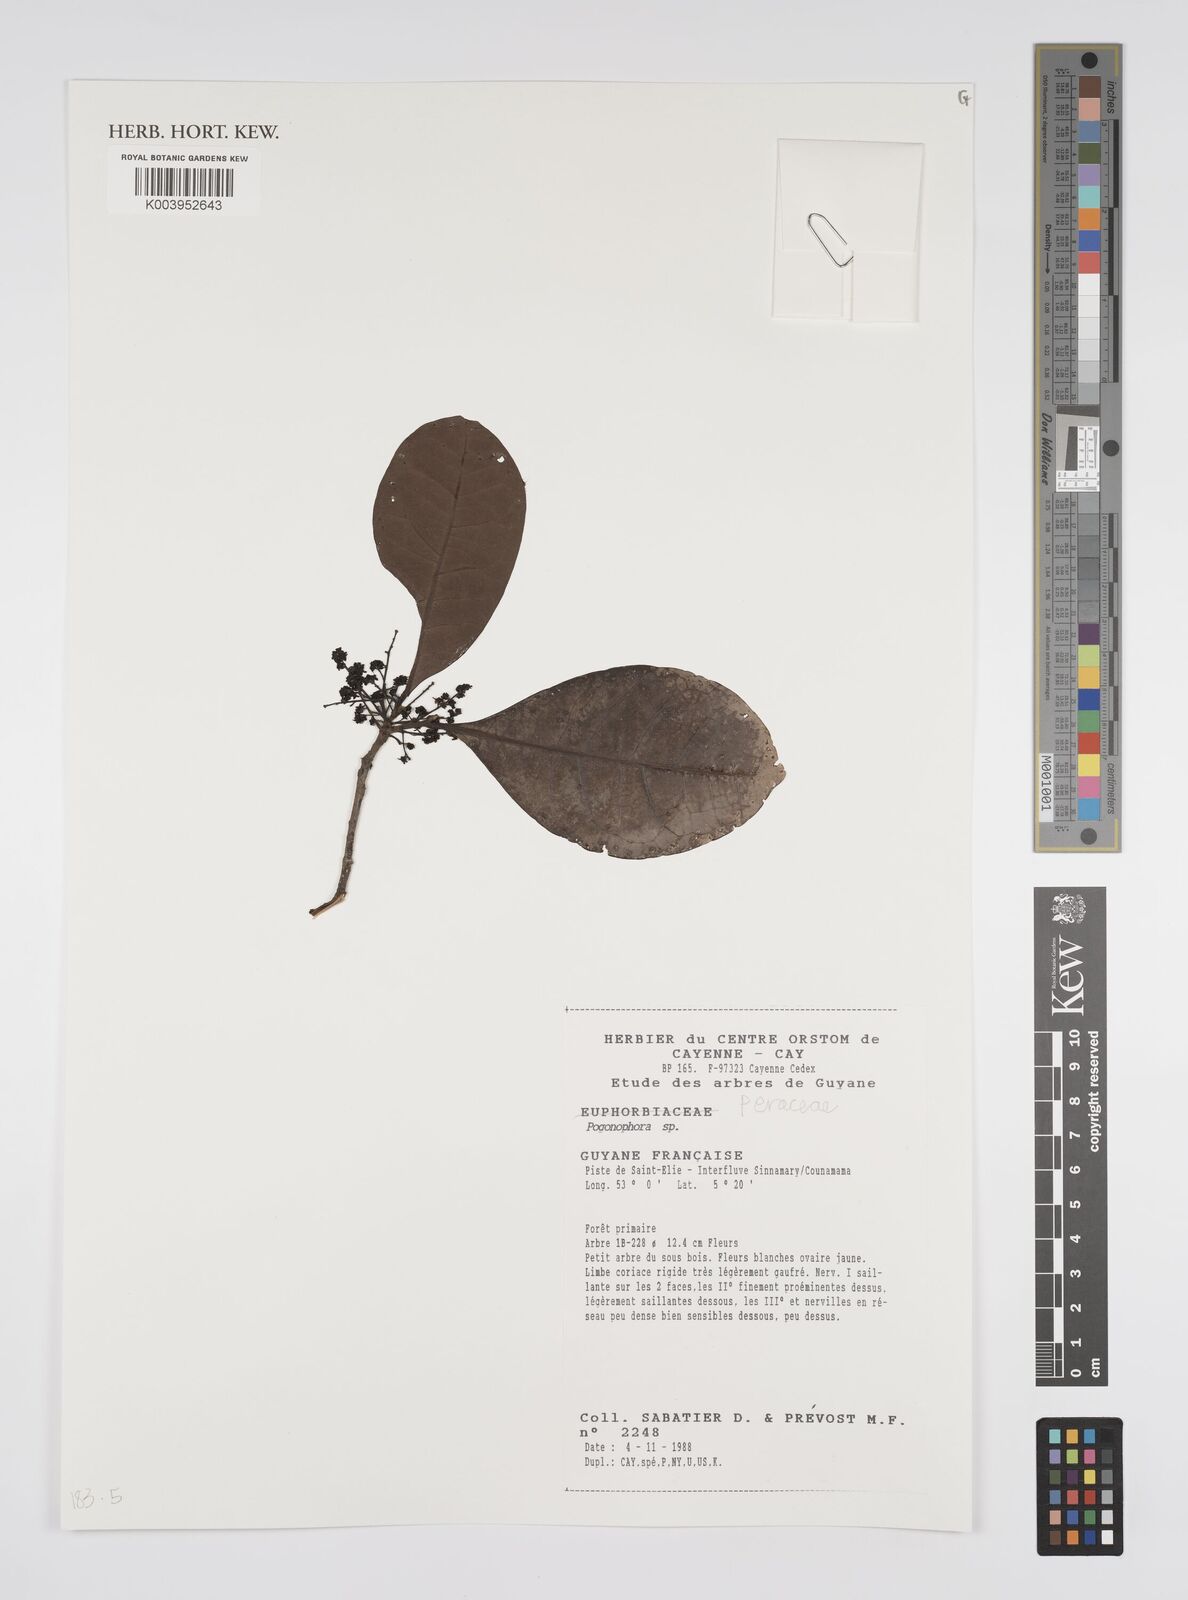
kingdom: Plantae
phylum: Tracheophyta
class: Magnoliopsida
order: Malpighiales
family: Peraceae
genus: Pogonophora
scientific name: Pogonophora
